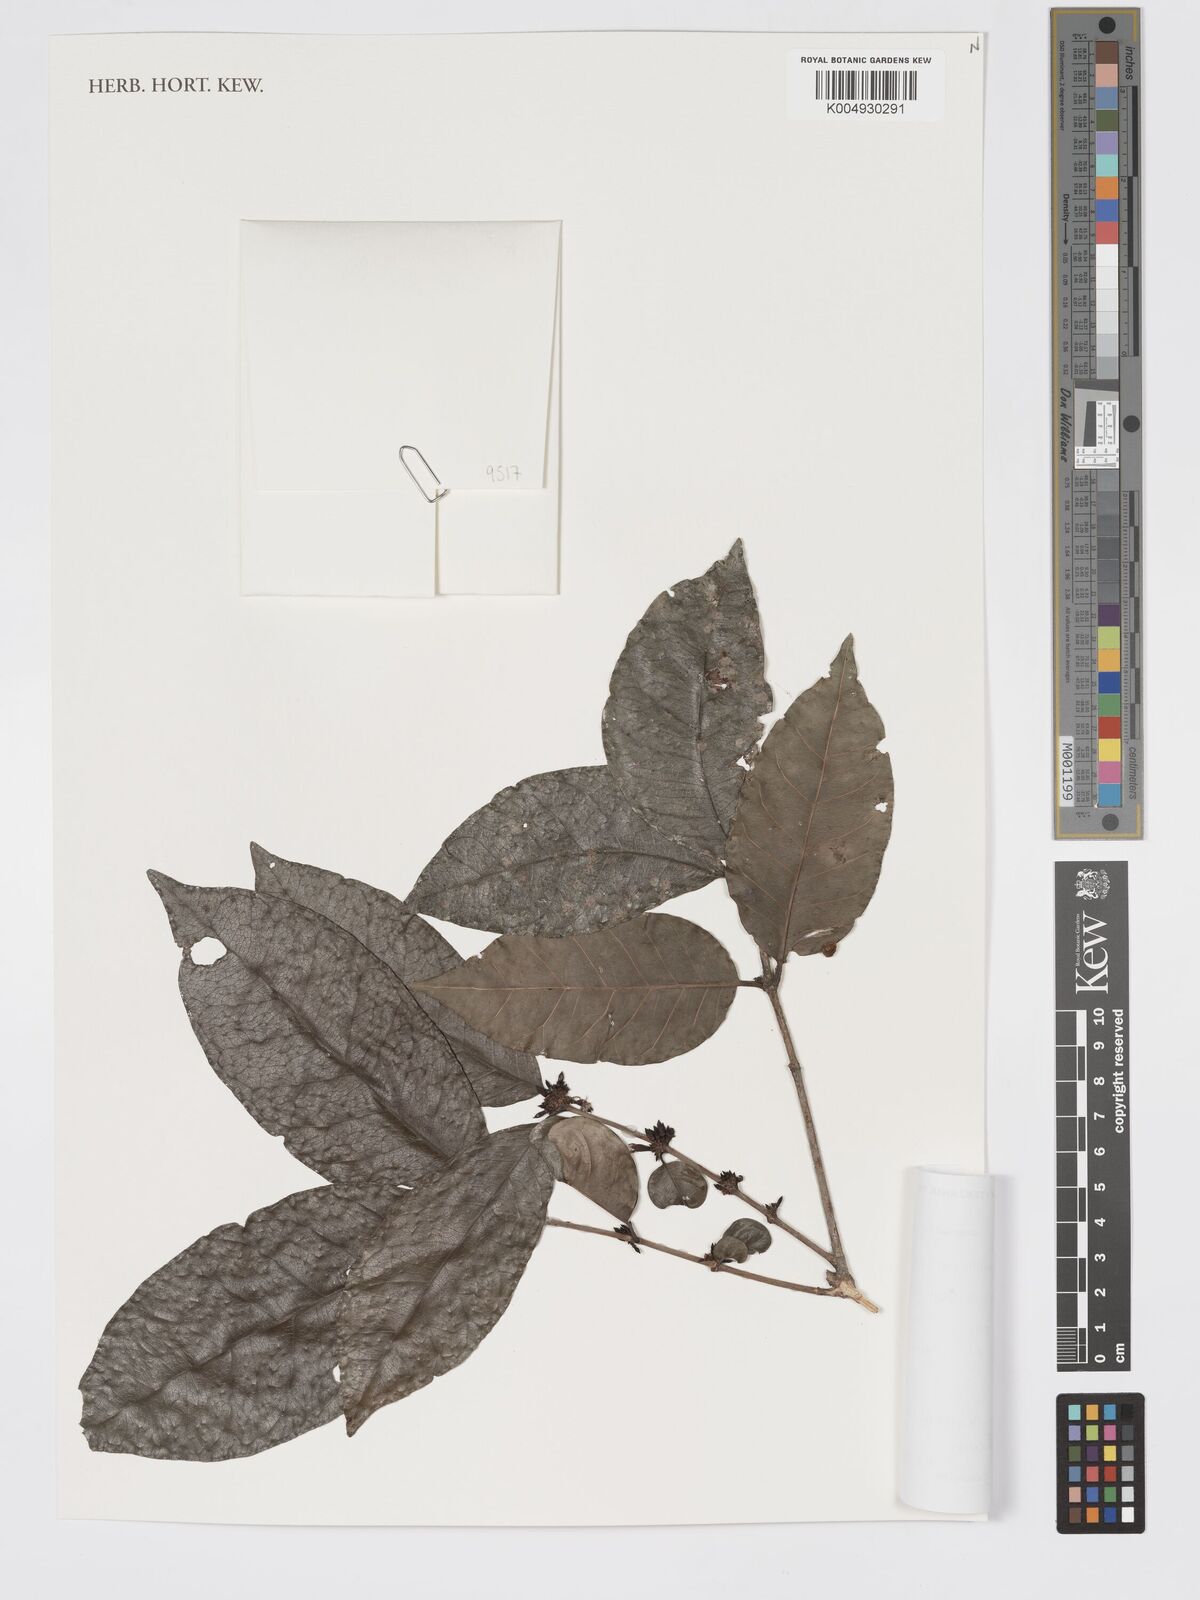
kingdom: Plantae
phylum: Tracheophyta
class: Magnoliopsida
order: Gentianales
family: Rubiaceae
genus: Polysphaeria
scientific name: Polysphaeria multiflora
